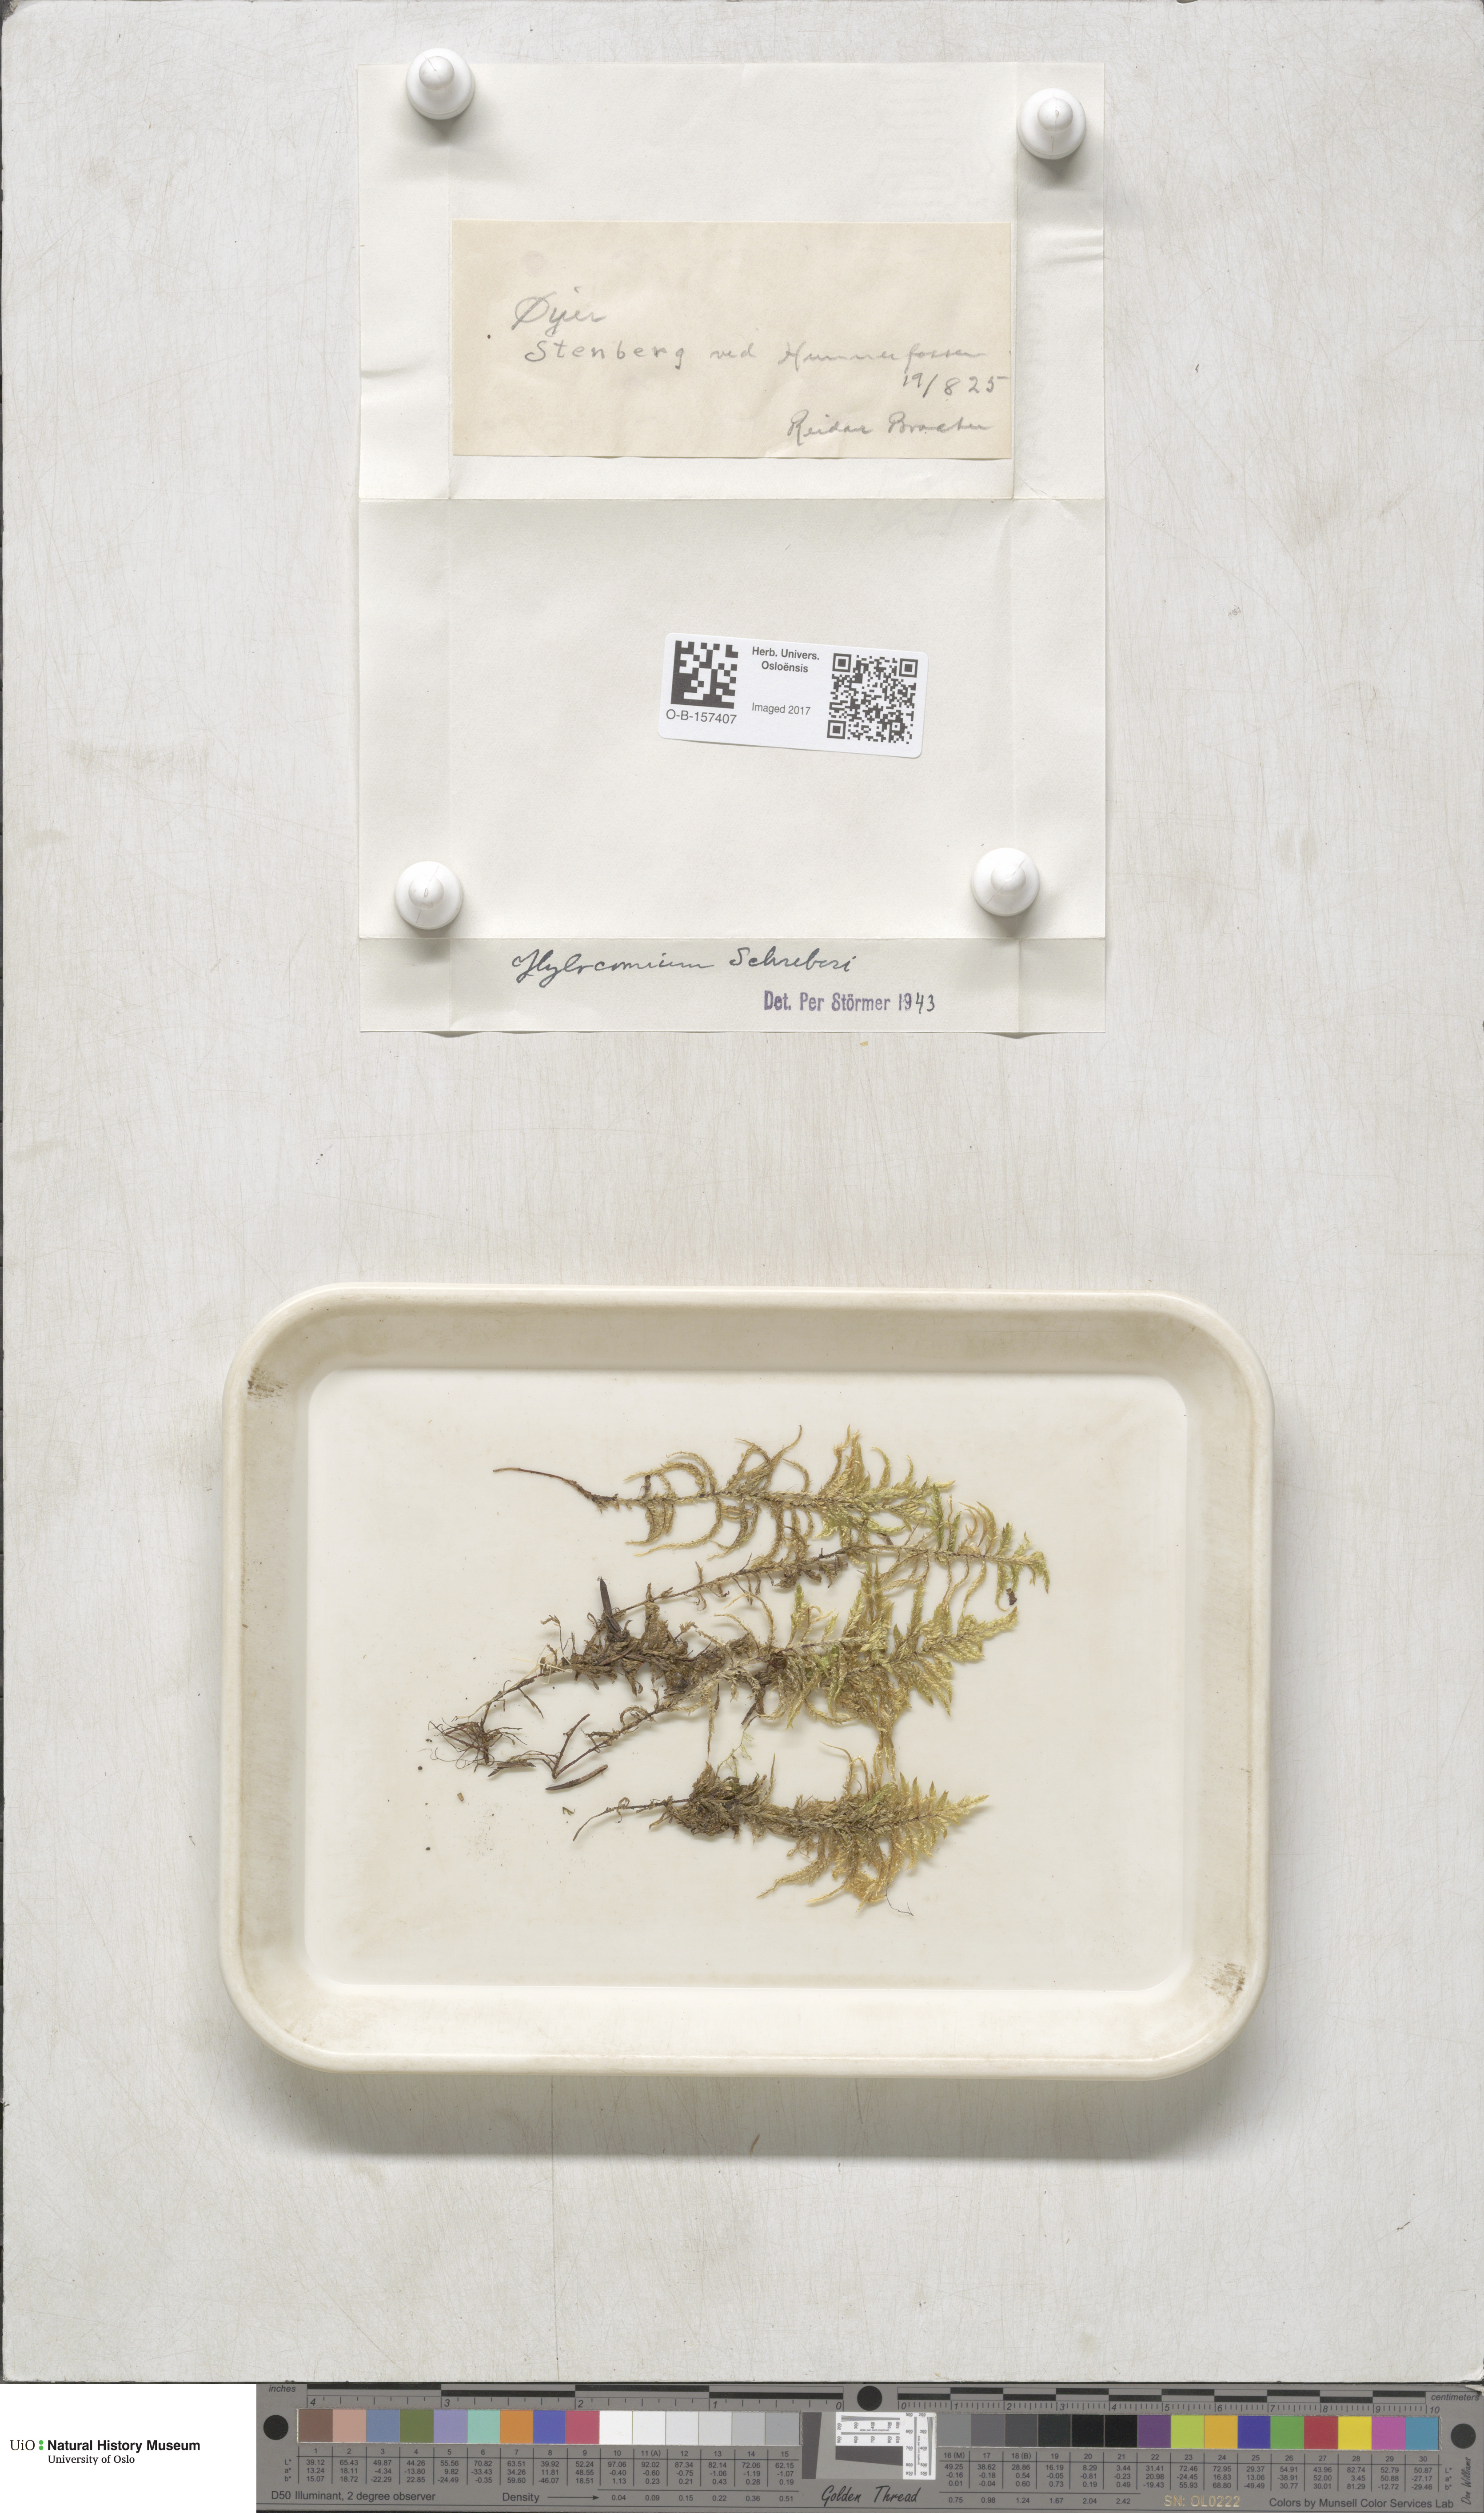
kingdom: Plantae
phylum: Bryophyta
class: Bryopsida
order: Hypnales
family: Hylocomiaceae
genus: Pleurozium
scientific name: Pleurozium schreberi
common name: Red-stemmed feather moss
